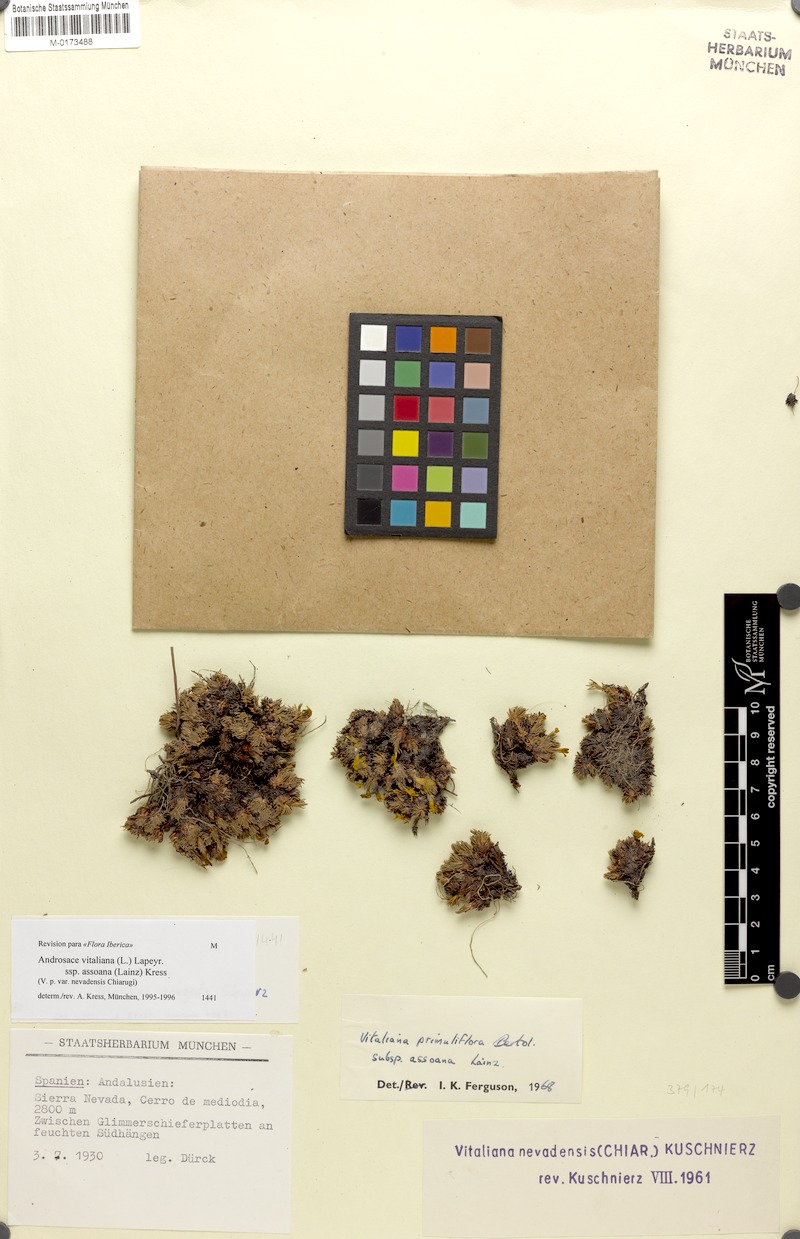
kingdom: Plantae
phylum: Tracheophyta
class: Magnoliopsida
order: Ericales
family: Primulaceae
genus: Androsace
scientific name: Androsace vitaliana
